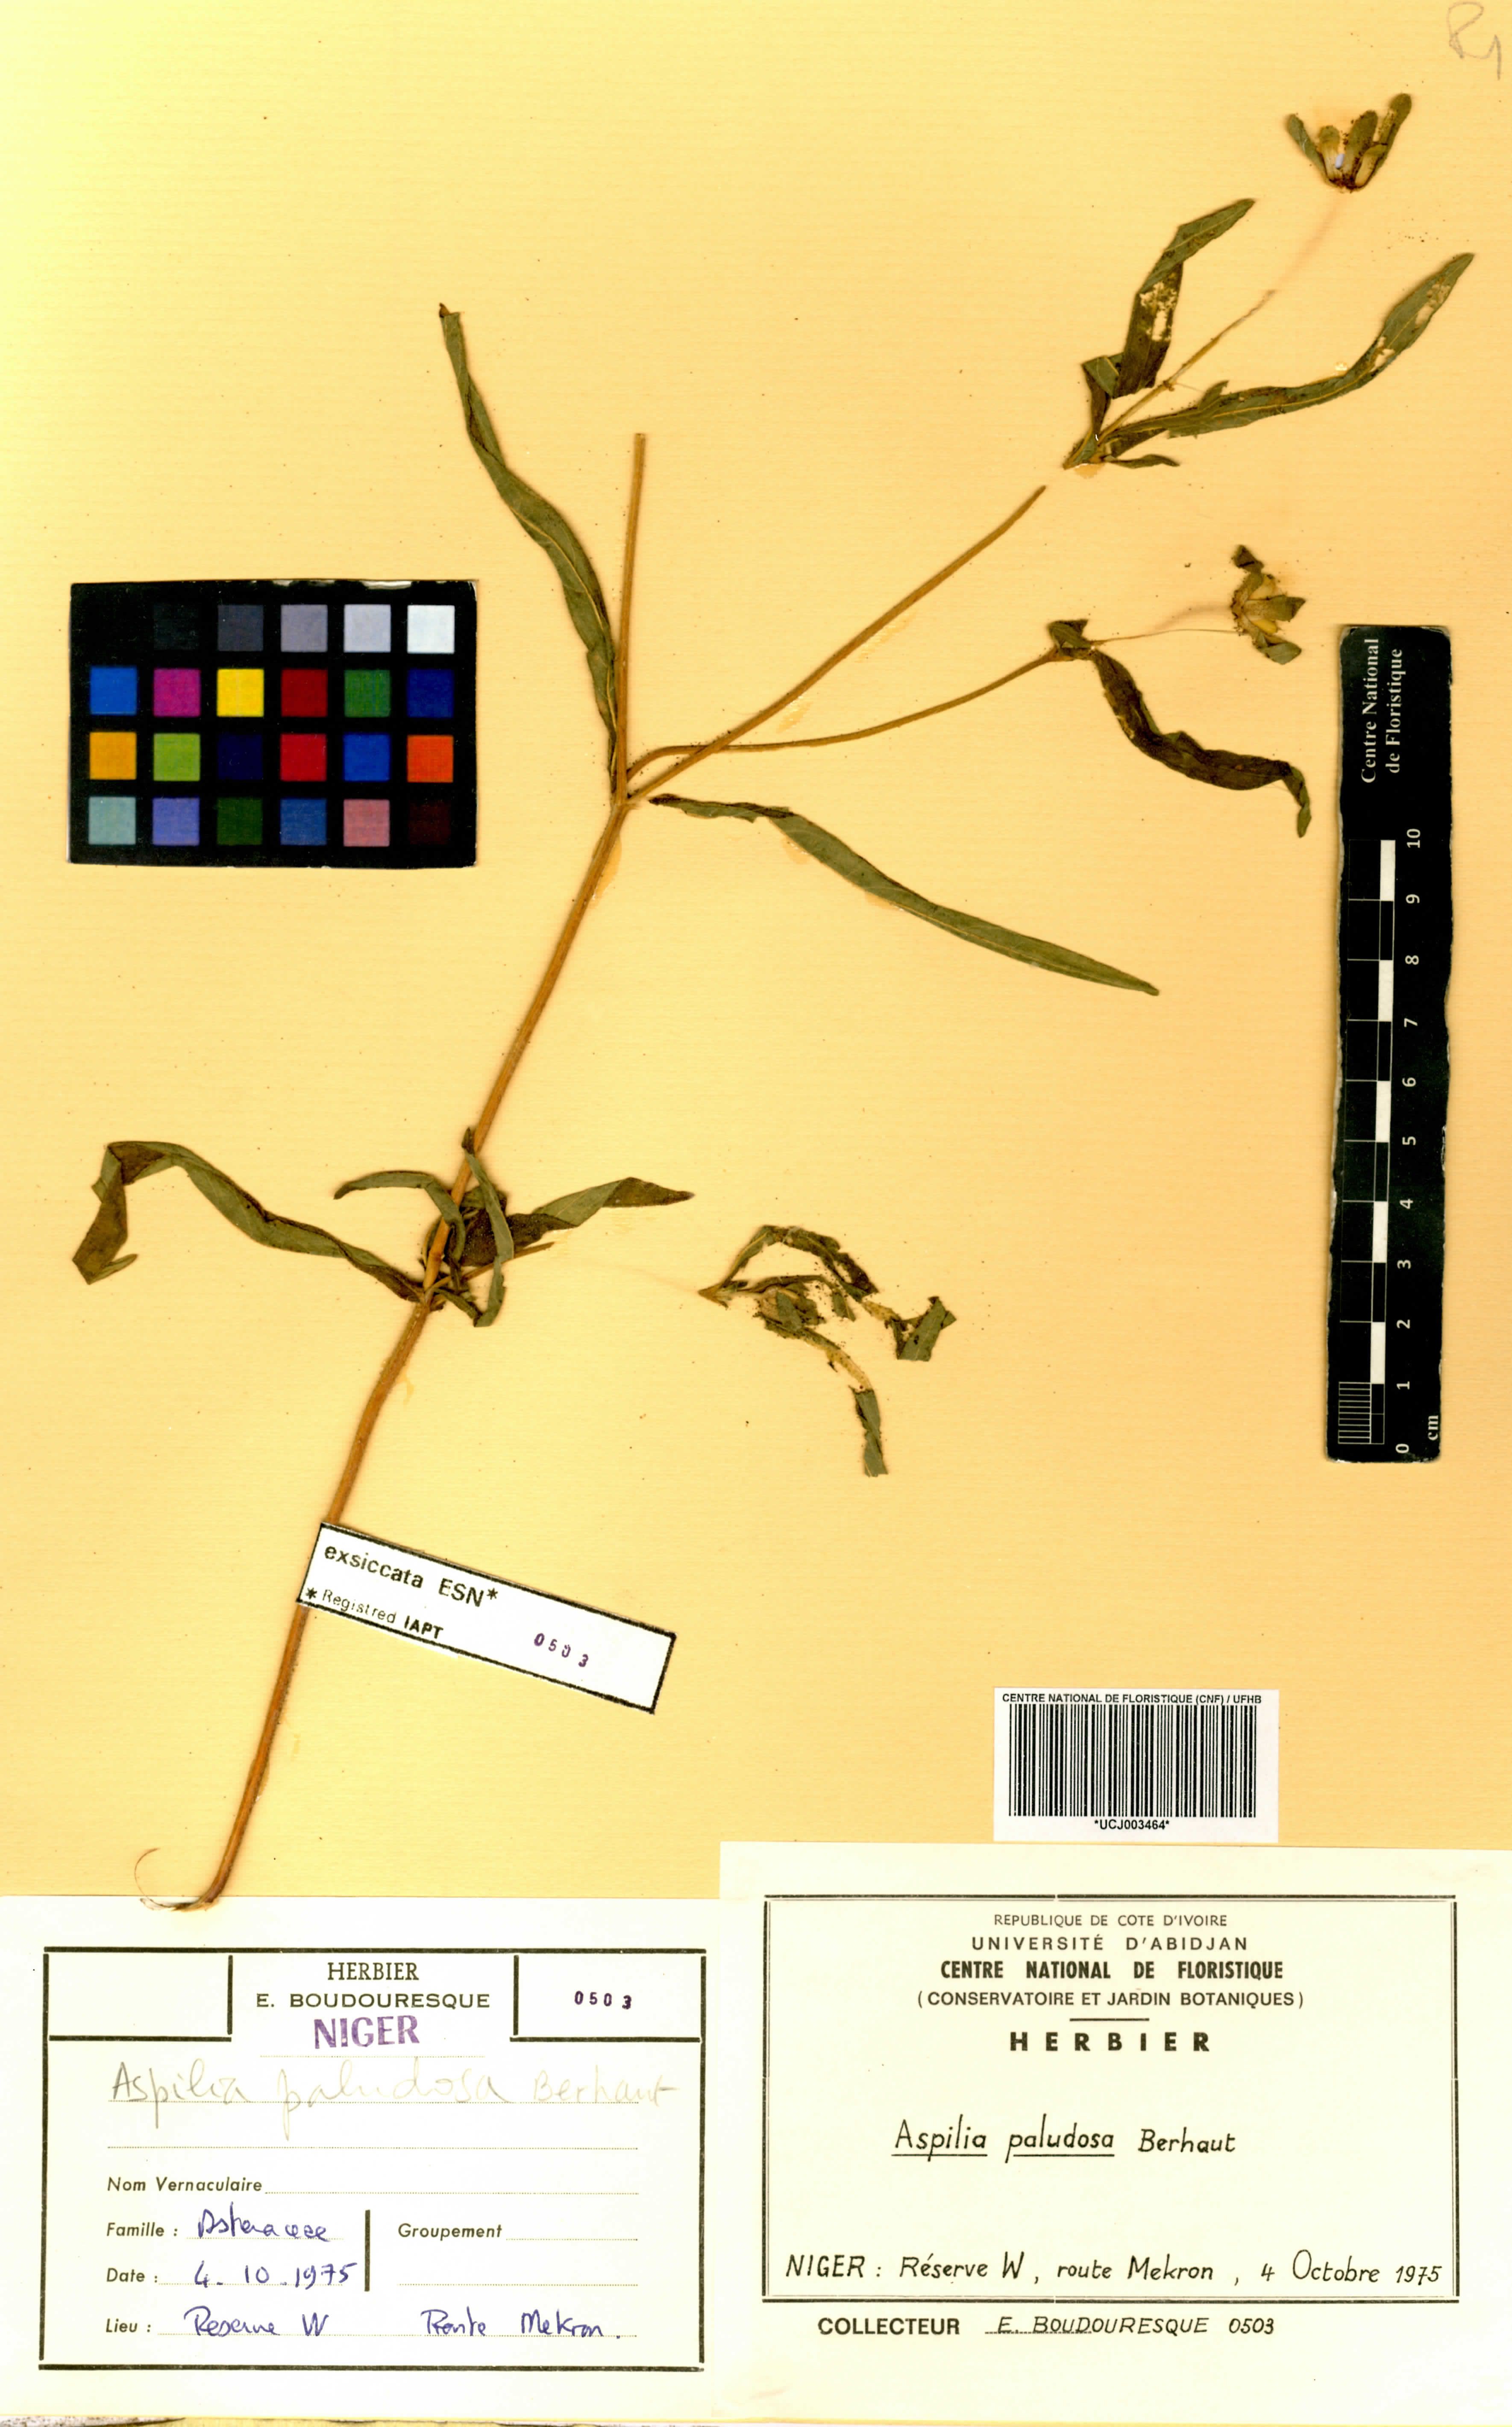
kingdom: Plantae
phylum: Tracheophyta
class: Magnoliopsida
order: Asterales
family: Asteraceae
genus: Aspilia
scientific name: Aspilia paludosa
